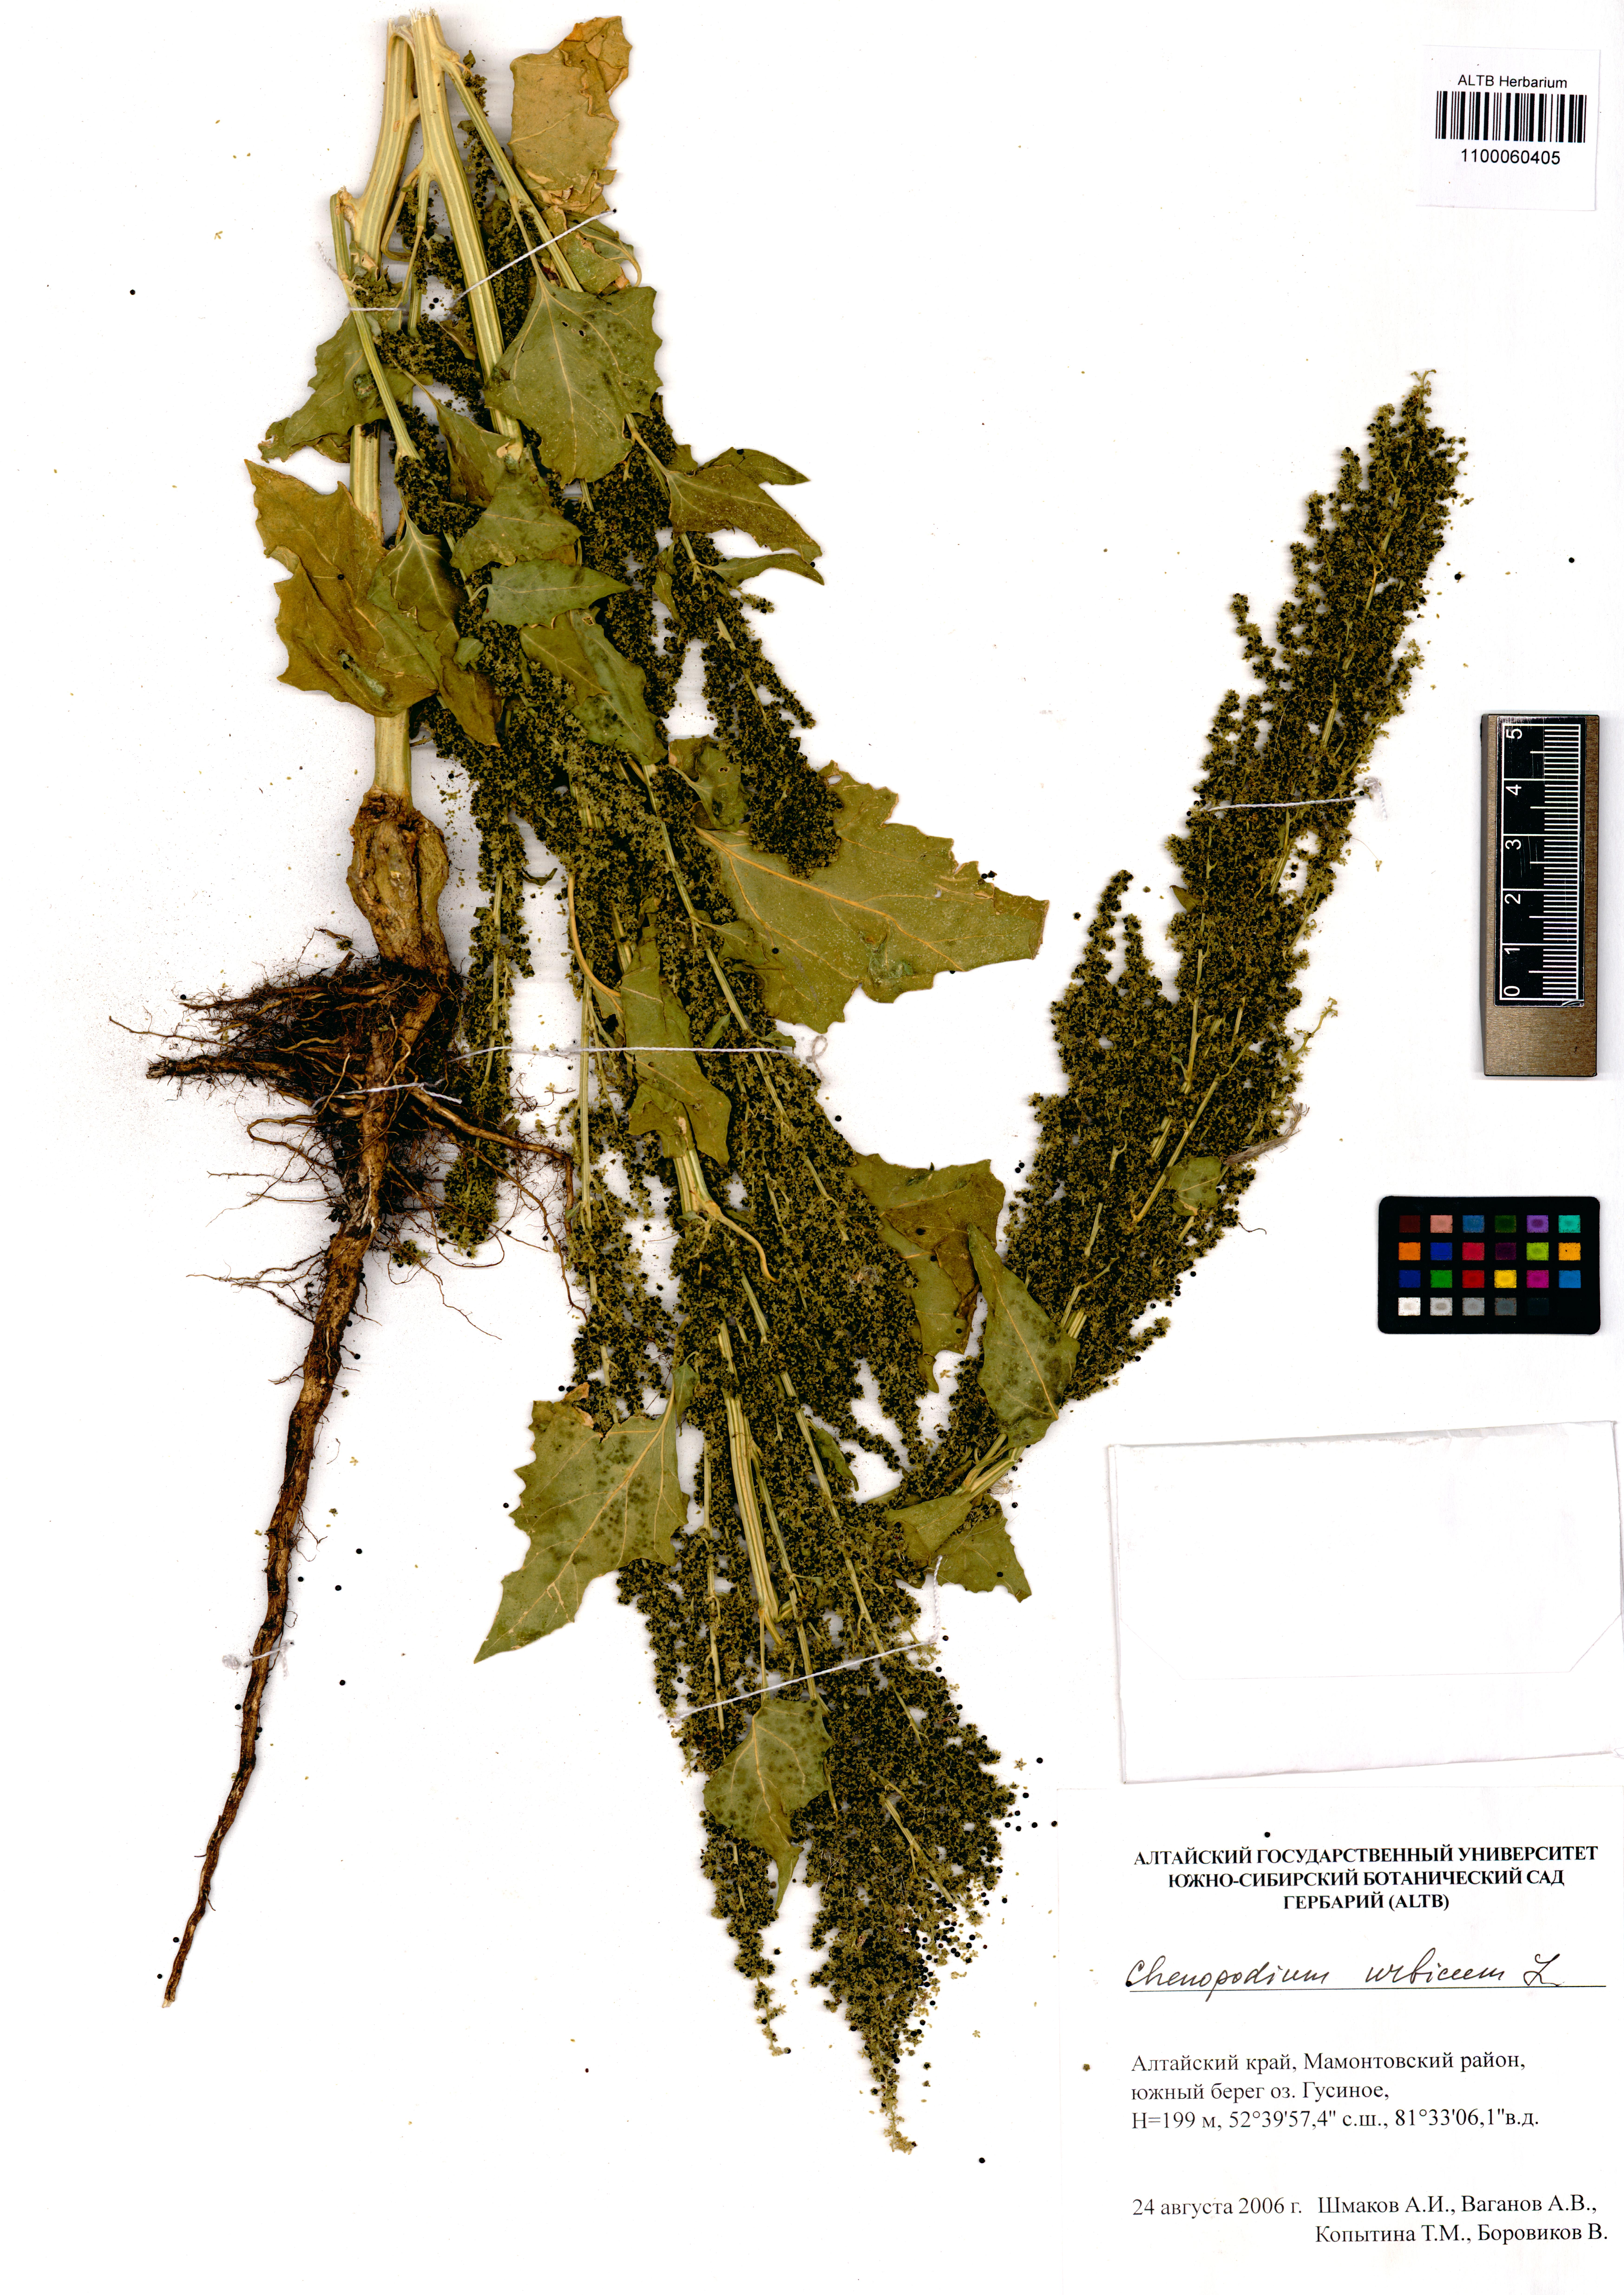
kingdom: Plantae
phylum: Tracheophyta
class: Magnoliopsida
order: Caryophyllales
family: Amaranthaceae
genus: Oxybasis
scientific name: Oxybasis urbica
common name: City goosefoot
